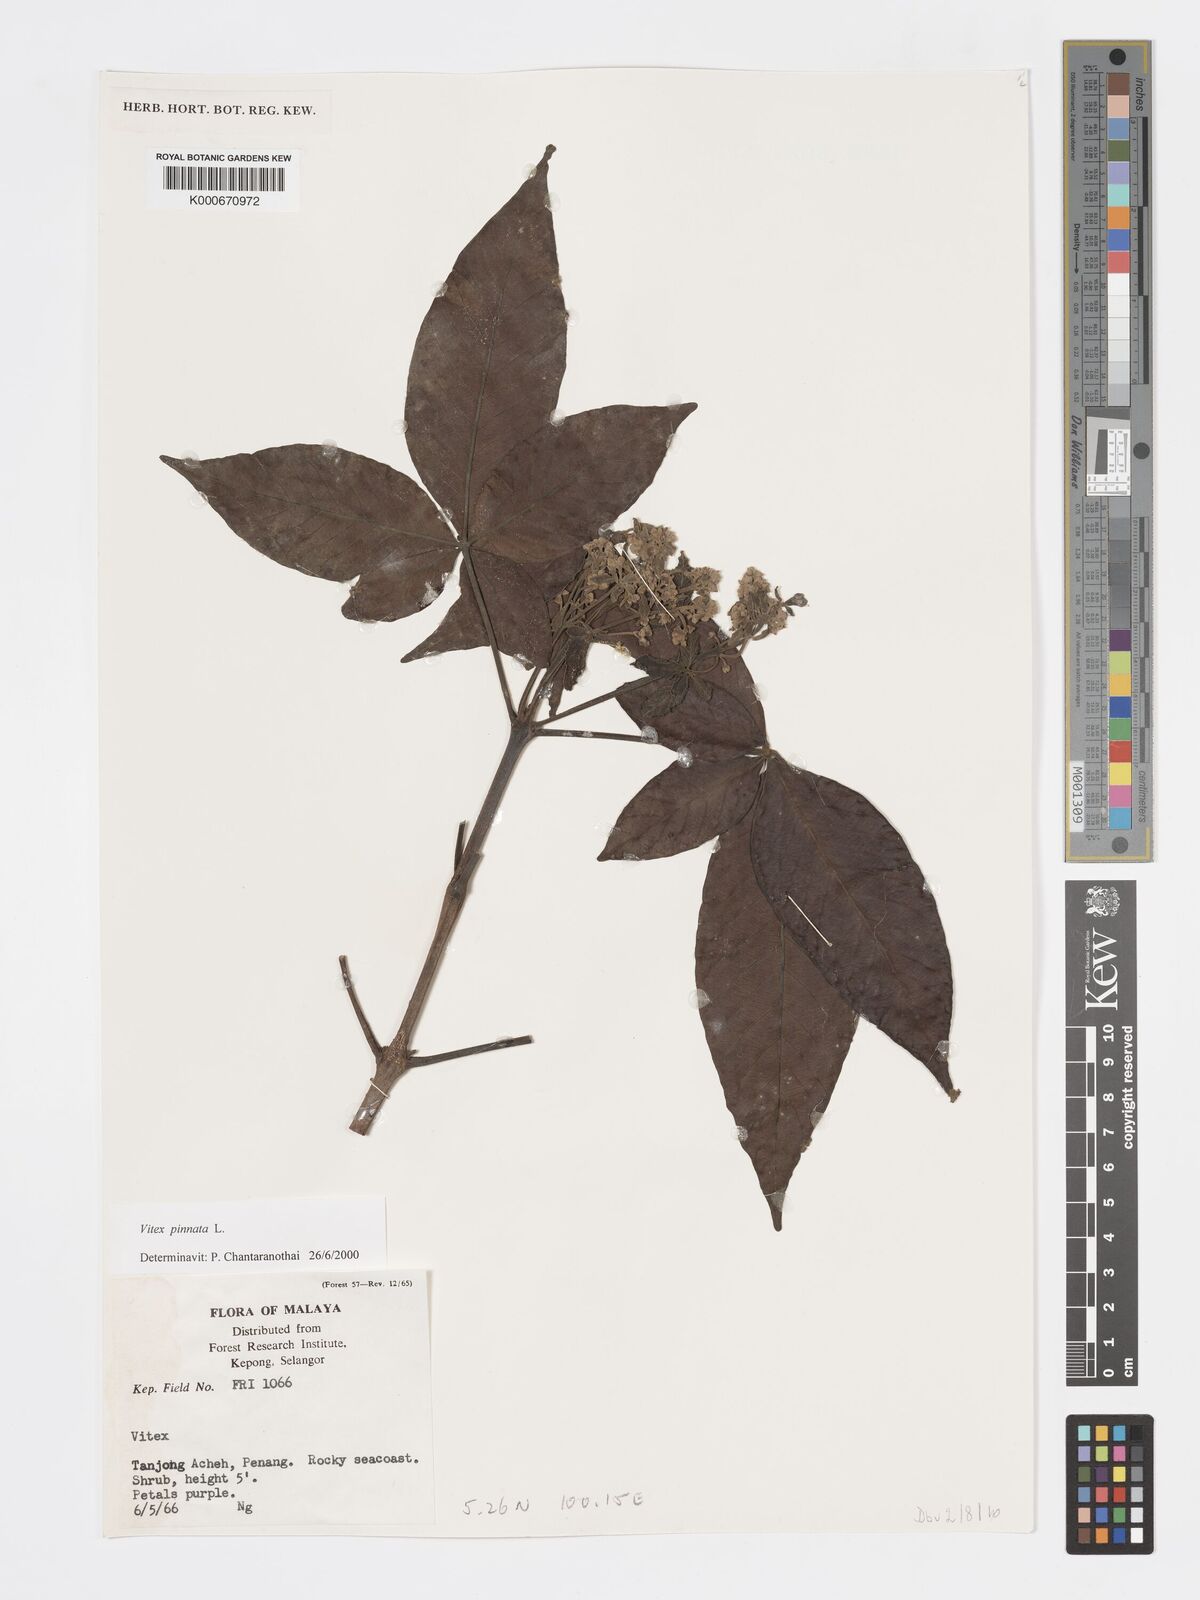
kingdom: Plantae
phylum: Tracheophyta
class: Magnoliopsida
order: Lamiales
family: Lamiaceae
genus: Vitex
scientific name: Vitex pinnata
